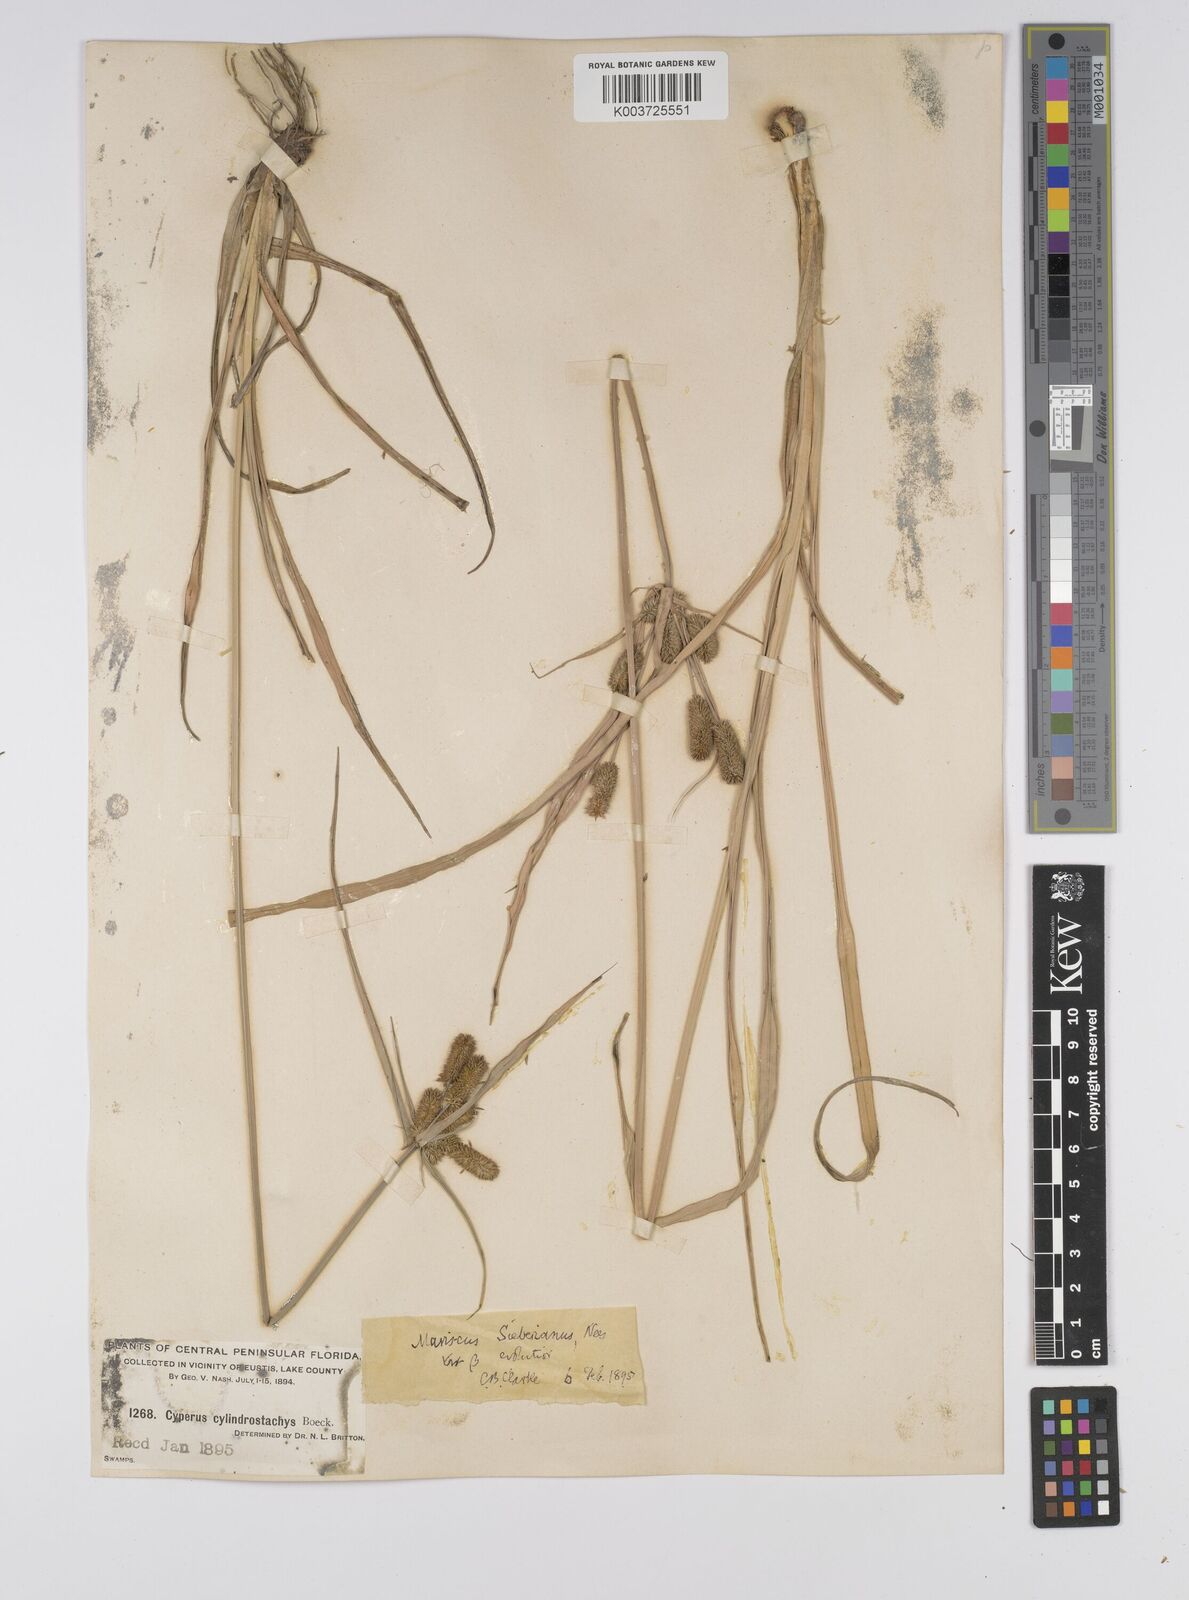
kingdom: Plantae
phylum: Tracheophyta
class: Liliopsida
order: Poales
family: Cyperaceae
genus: Cyperus
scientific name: Cyperus cyperoides
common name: Pacific island flat sedge
